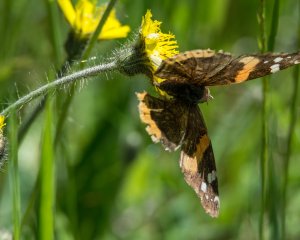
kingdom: Animalia
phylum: Arthropoda
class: Insecta
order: Lepidoptera
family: Nymphalidae
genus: Vanessa
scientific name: Vanessa atalanta
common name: Red Admiral
